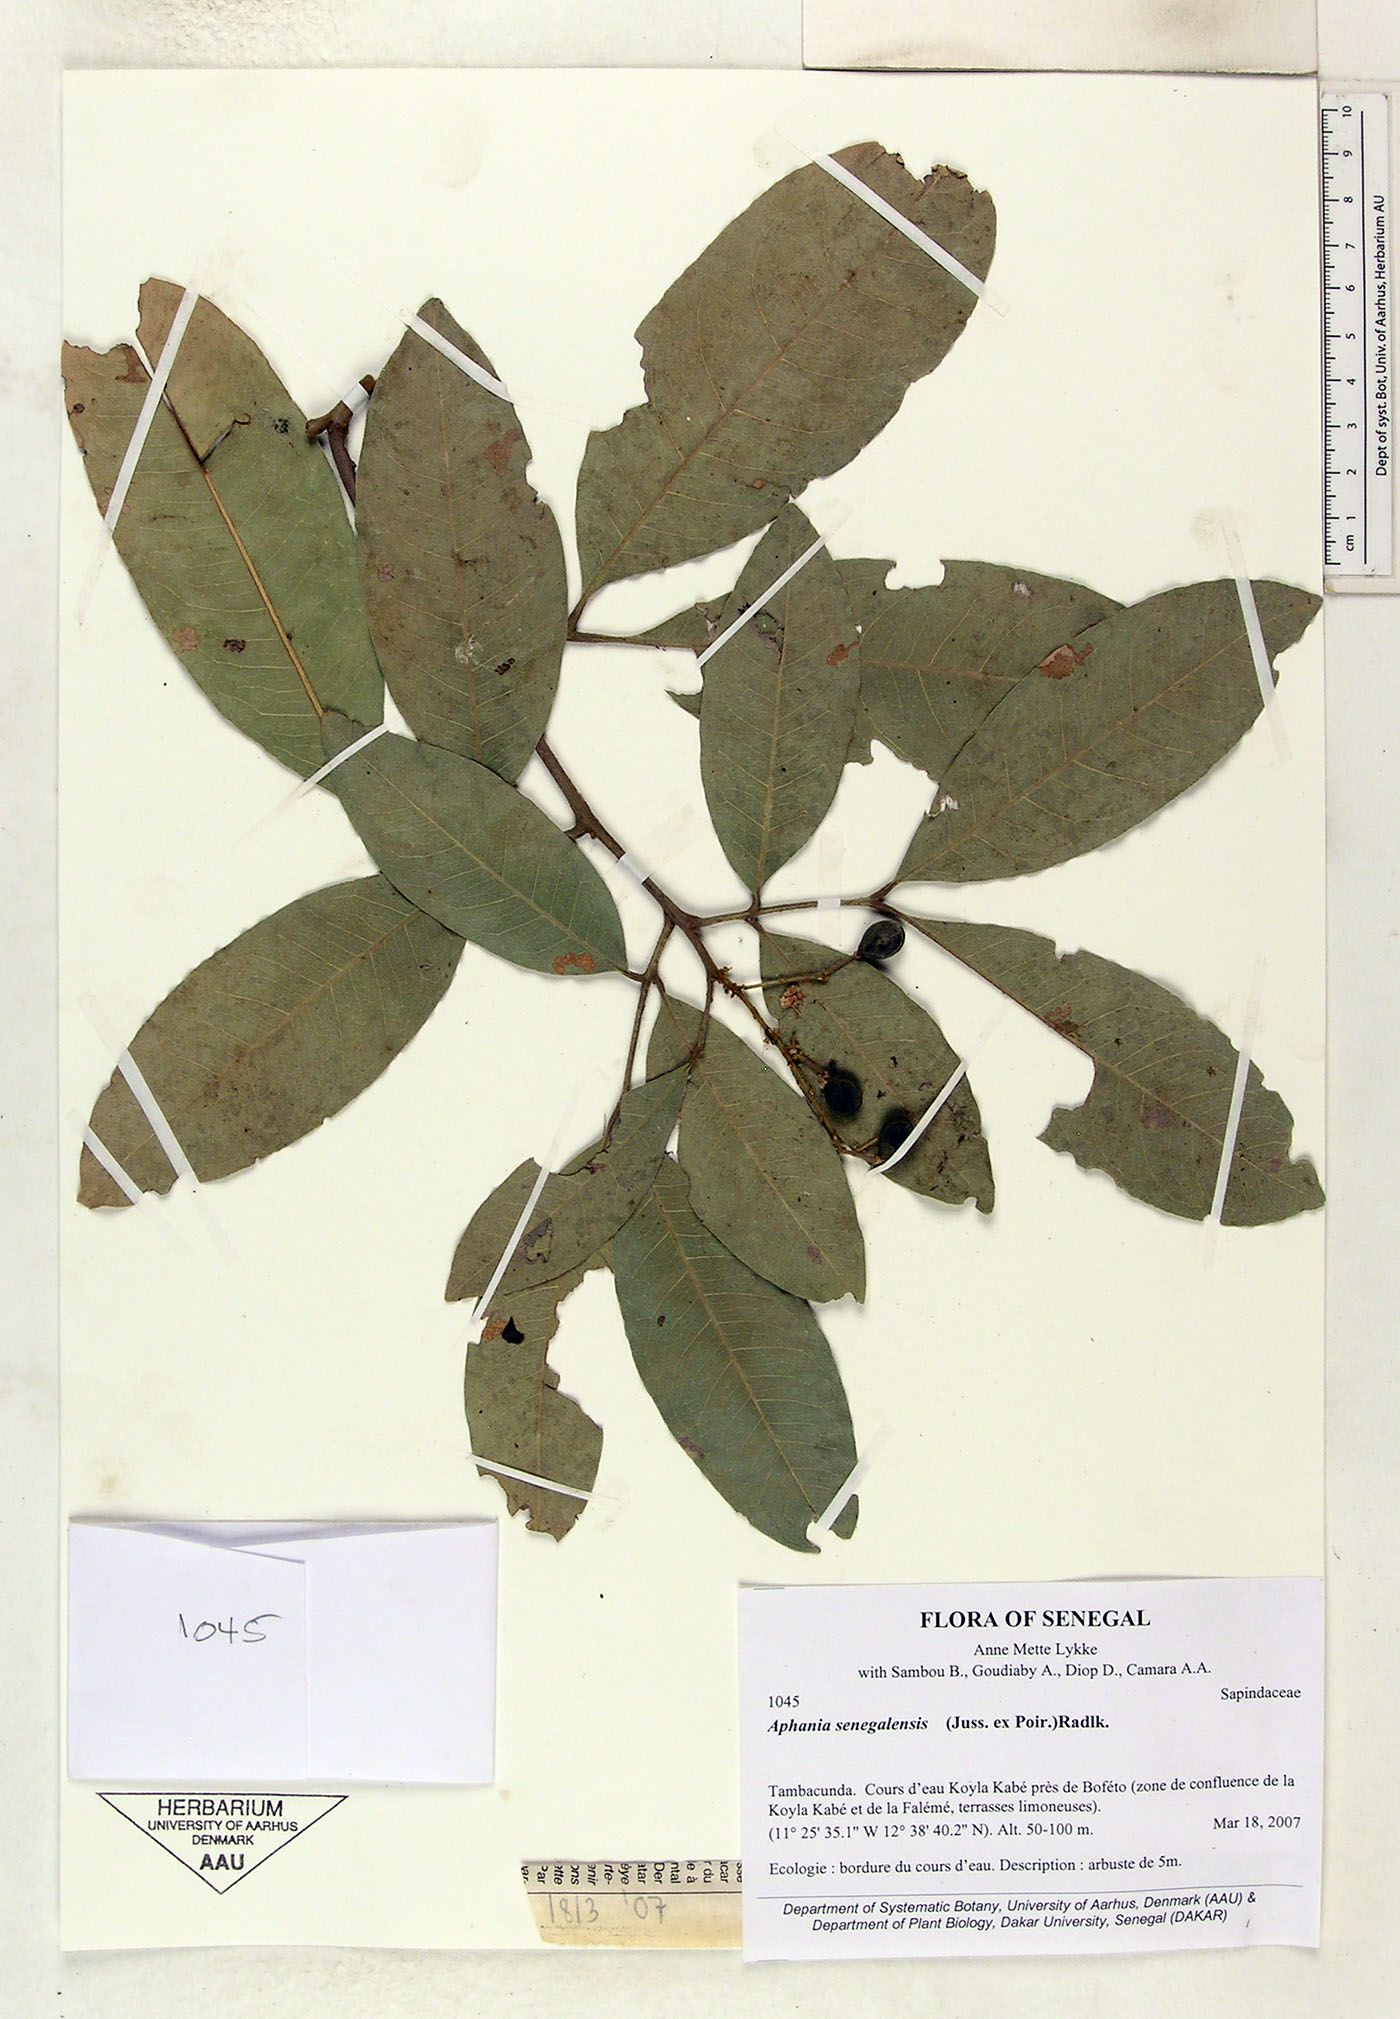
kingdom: Plantae
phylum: Tracheophyta
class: Magnoliopsida
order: Sapindales
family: Sapindaceae
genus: Lepisanthes
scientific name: Lepisanthes senegalensis
